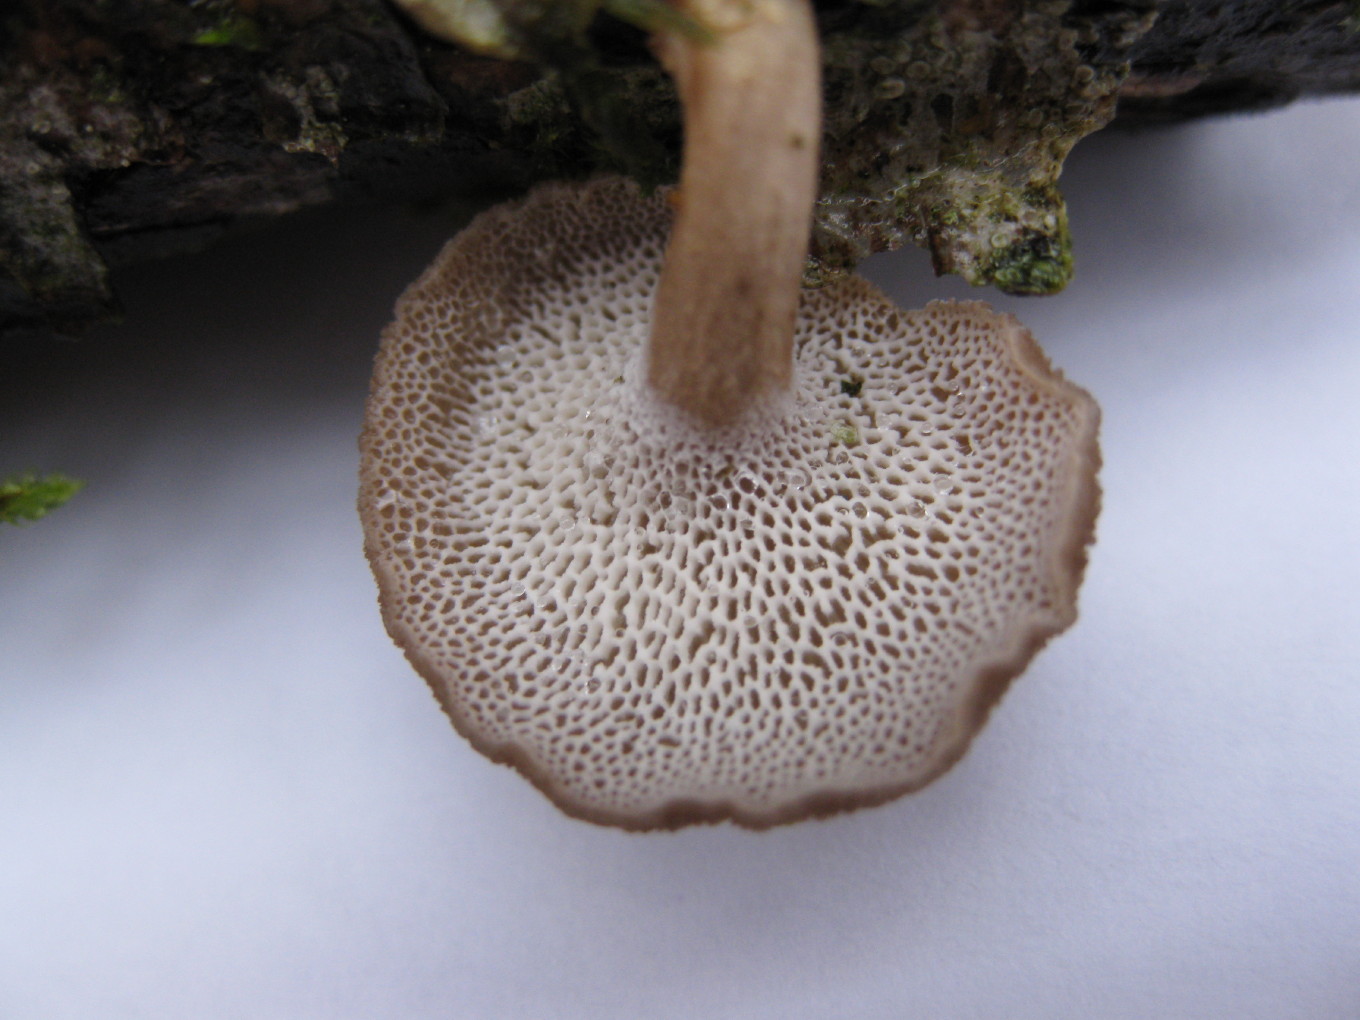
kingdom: Fungi
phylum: Basidiomycota
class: Agaricomycetes
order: Polyporales
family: Polyporaceae
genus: Lentinus
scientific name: Lentinus brumalis
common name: vinter-stilkporesvamp
